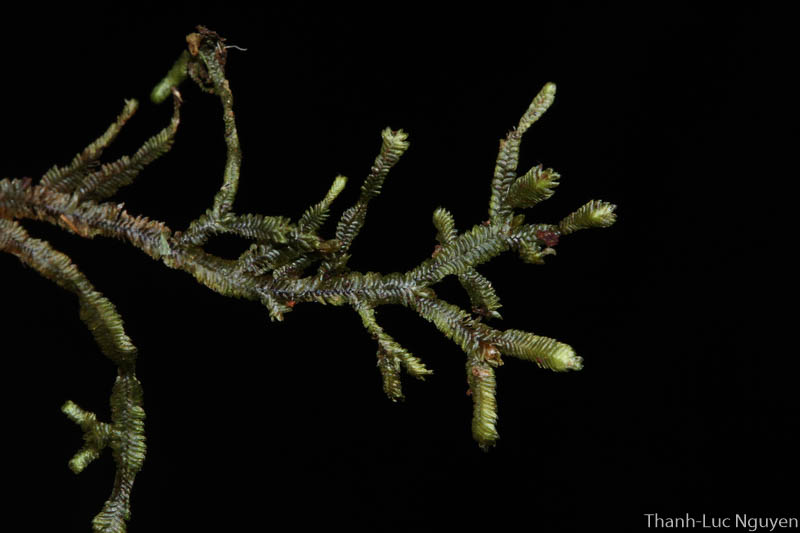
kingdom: Plantae
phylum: Marchantiophyta
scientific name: Marchantiophyta
